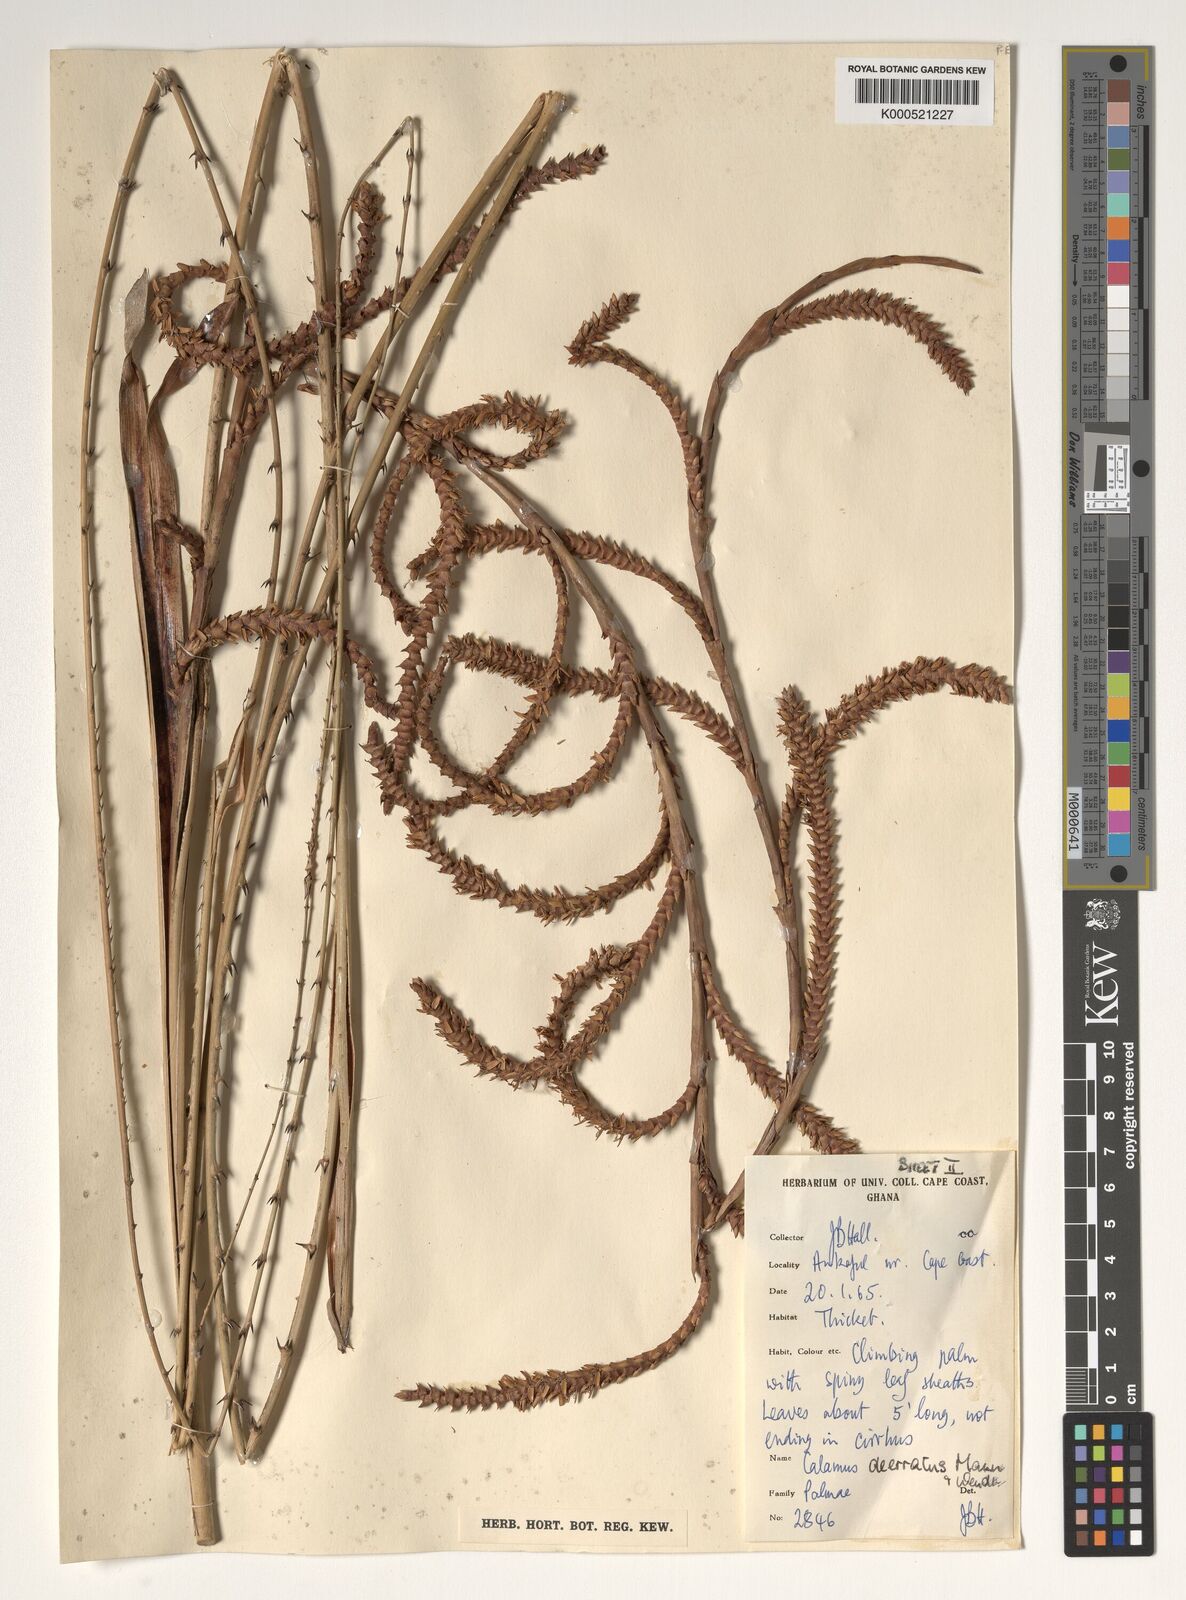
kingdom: Plantae
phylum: Tracheophyta
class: Liliopsida
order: Arecales
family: Arecaceae
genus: Calamus
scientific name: Calamus deerratus
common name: Rattan
